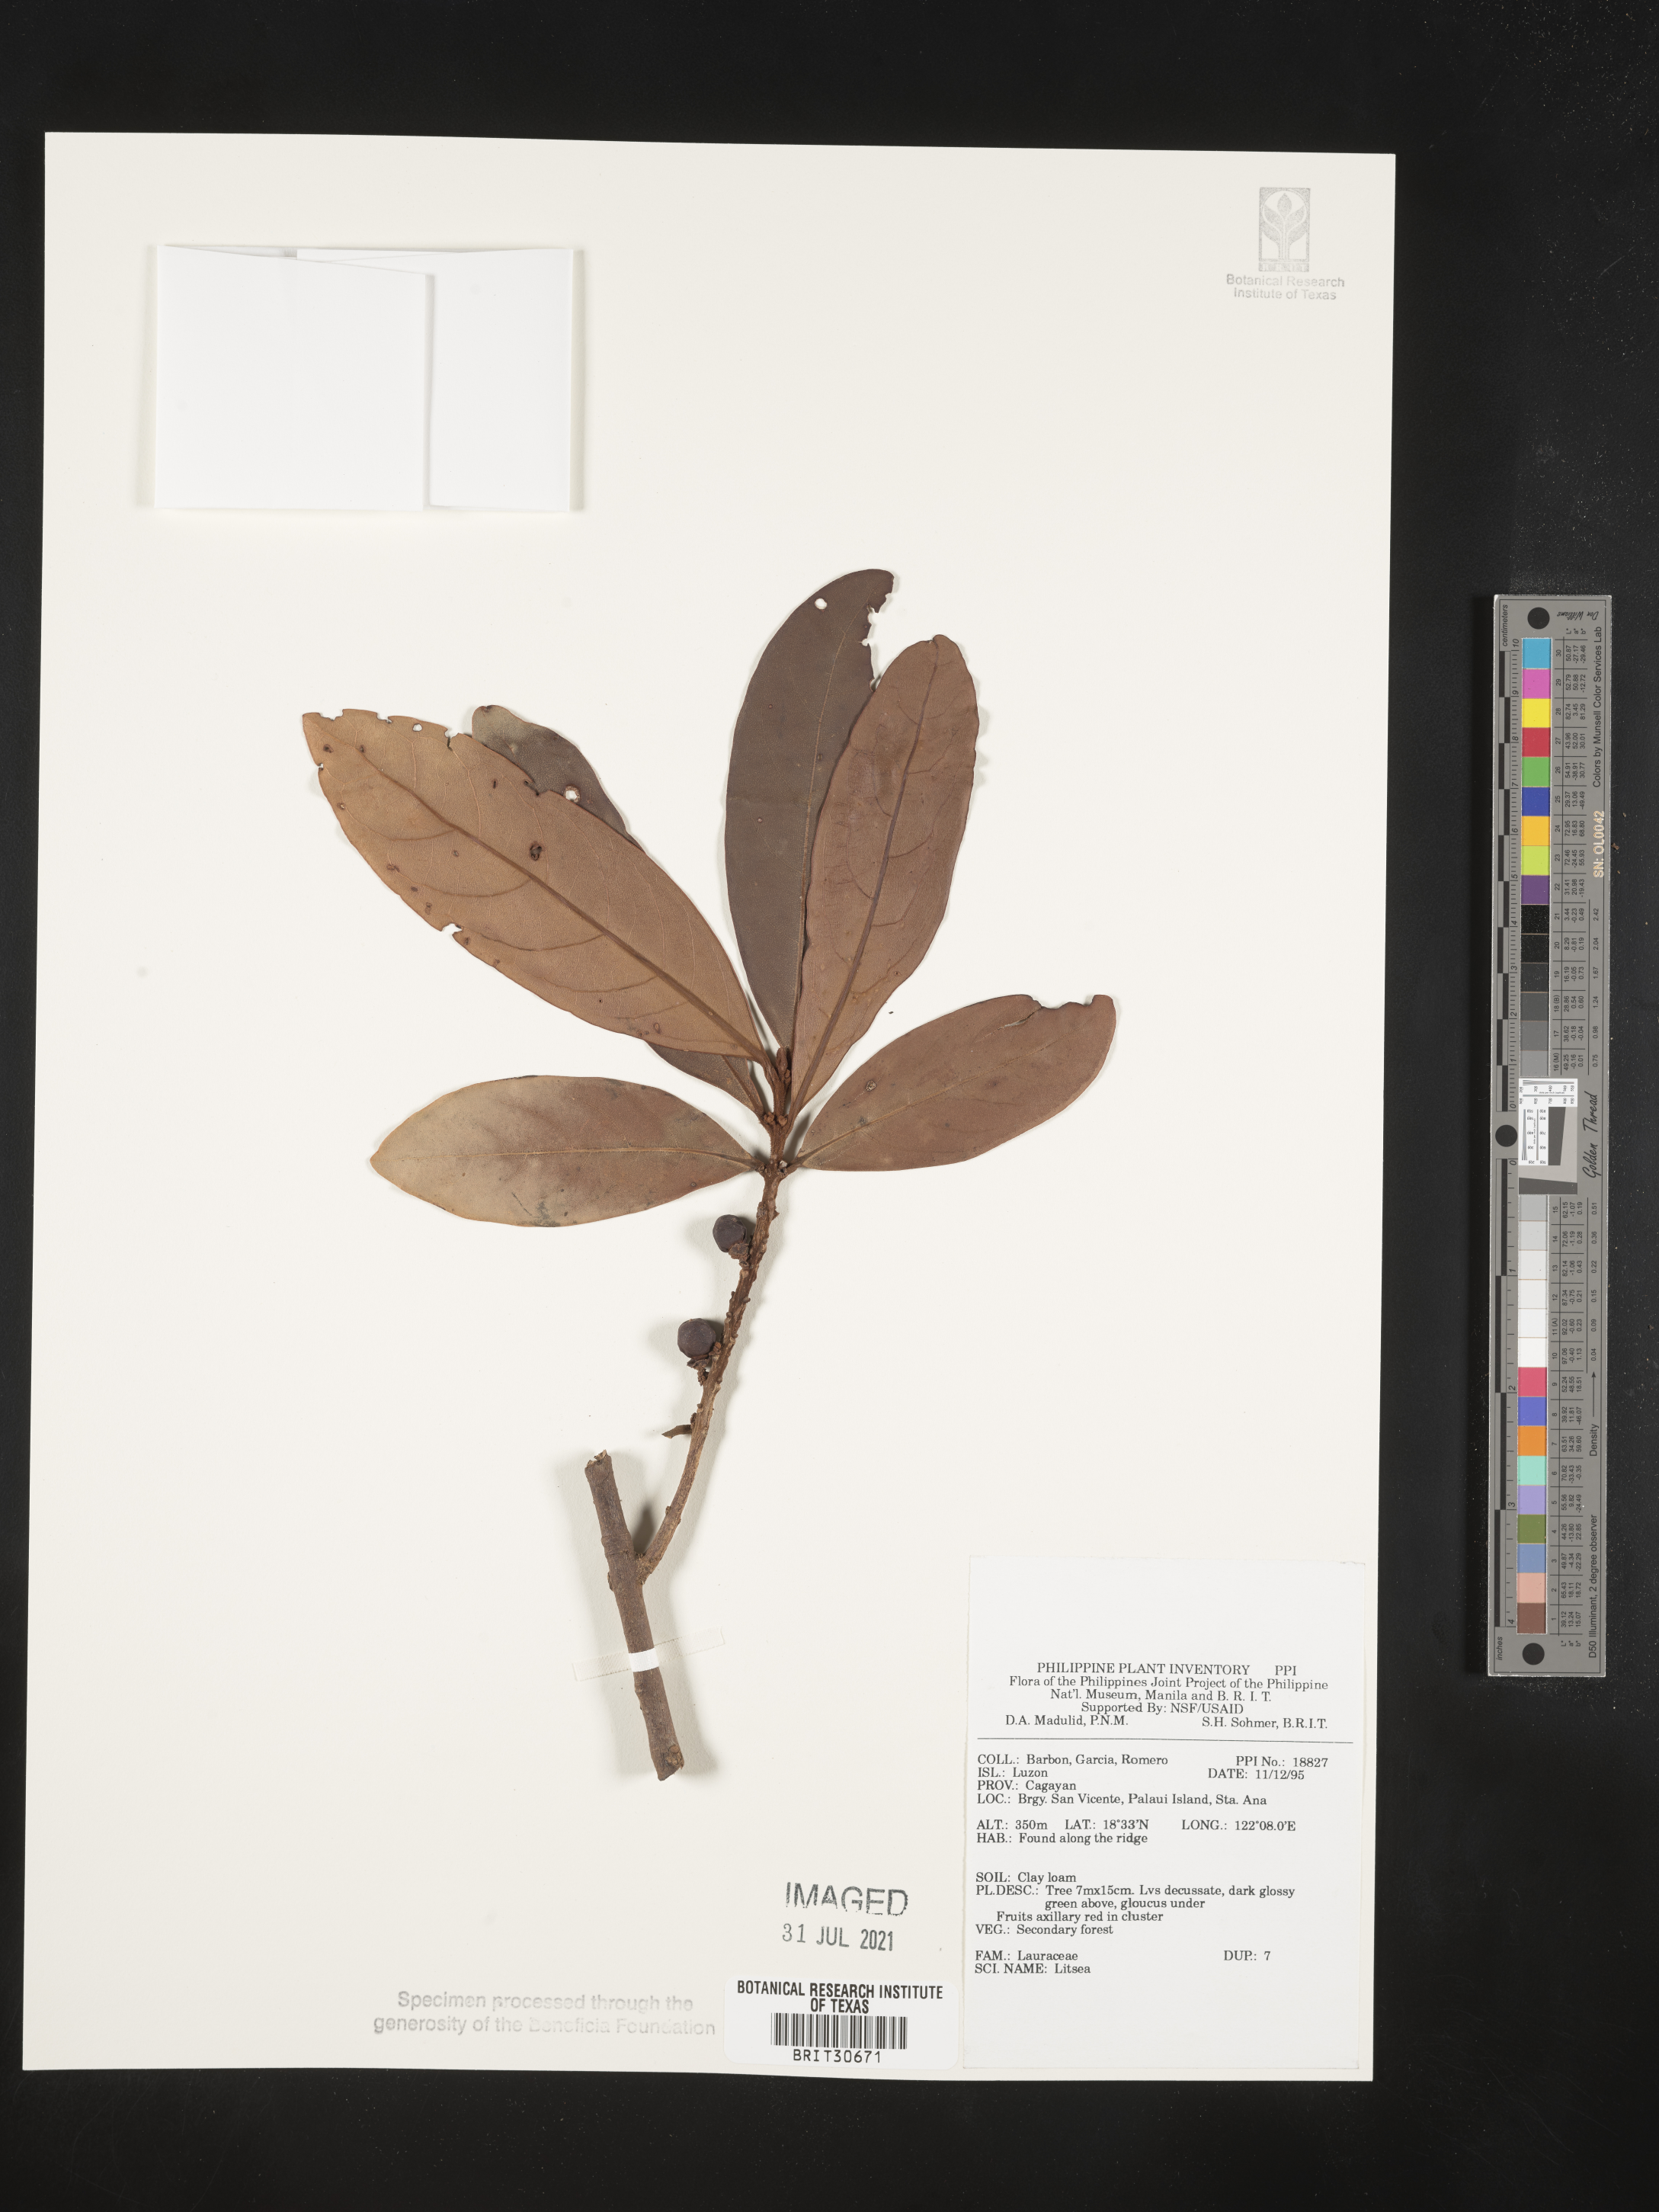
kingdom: Plantae
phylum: Tracheophyta
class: Magnoliopsida
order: Laurales
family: Lauraceae
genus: Litsea
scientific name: Litsea
